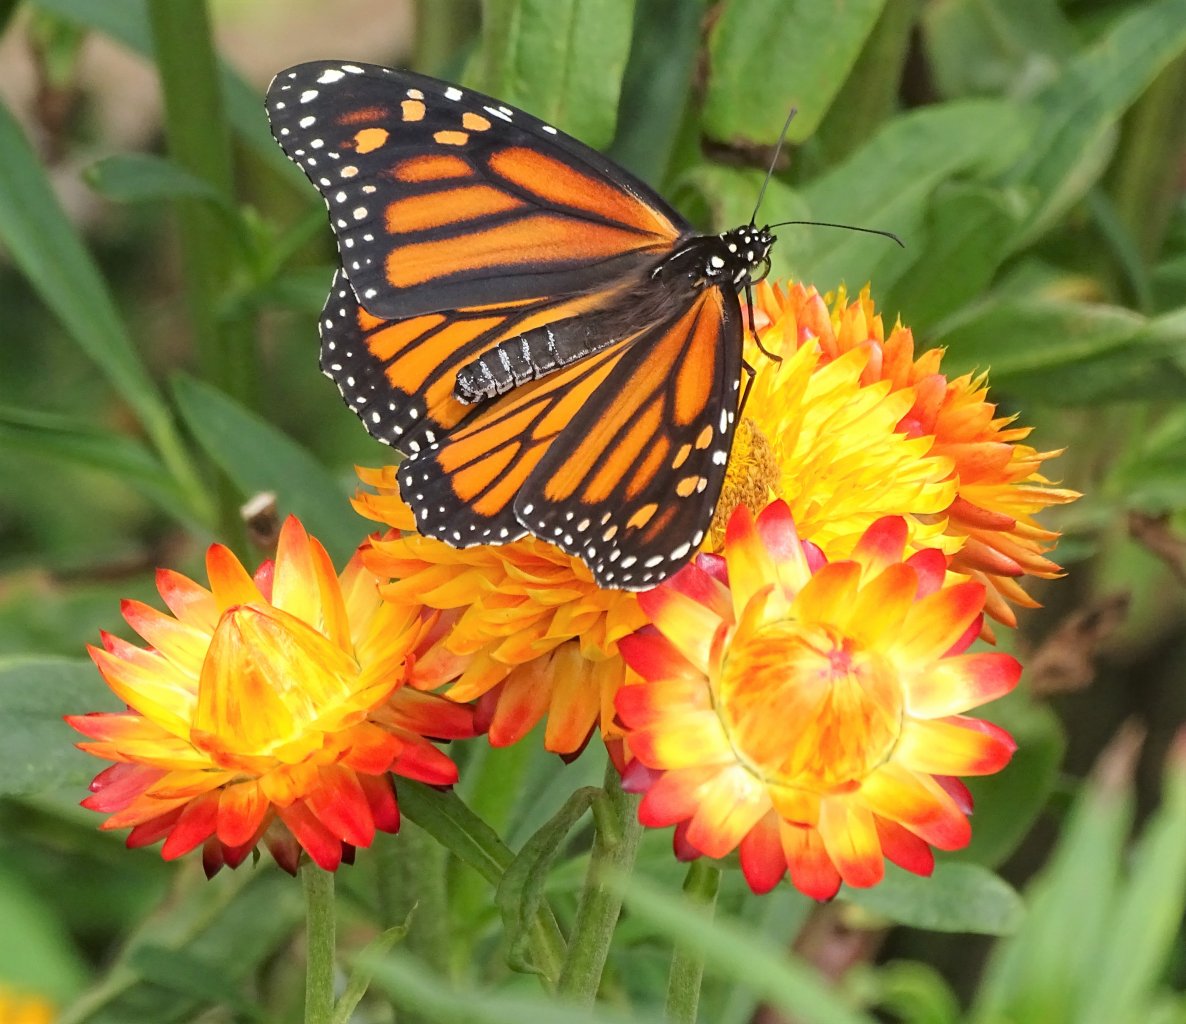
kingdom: Animalia
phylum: Arthropoda
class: Insecta
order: Lepidoptera
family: Nymphalidae
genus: Danaus
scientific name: Danaus plexippus
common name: Monarch
